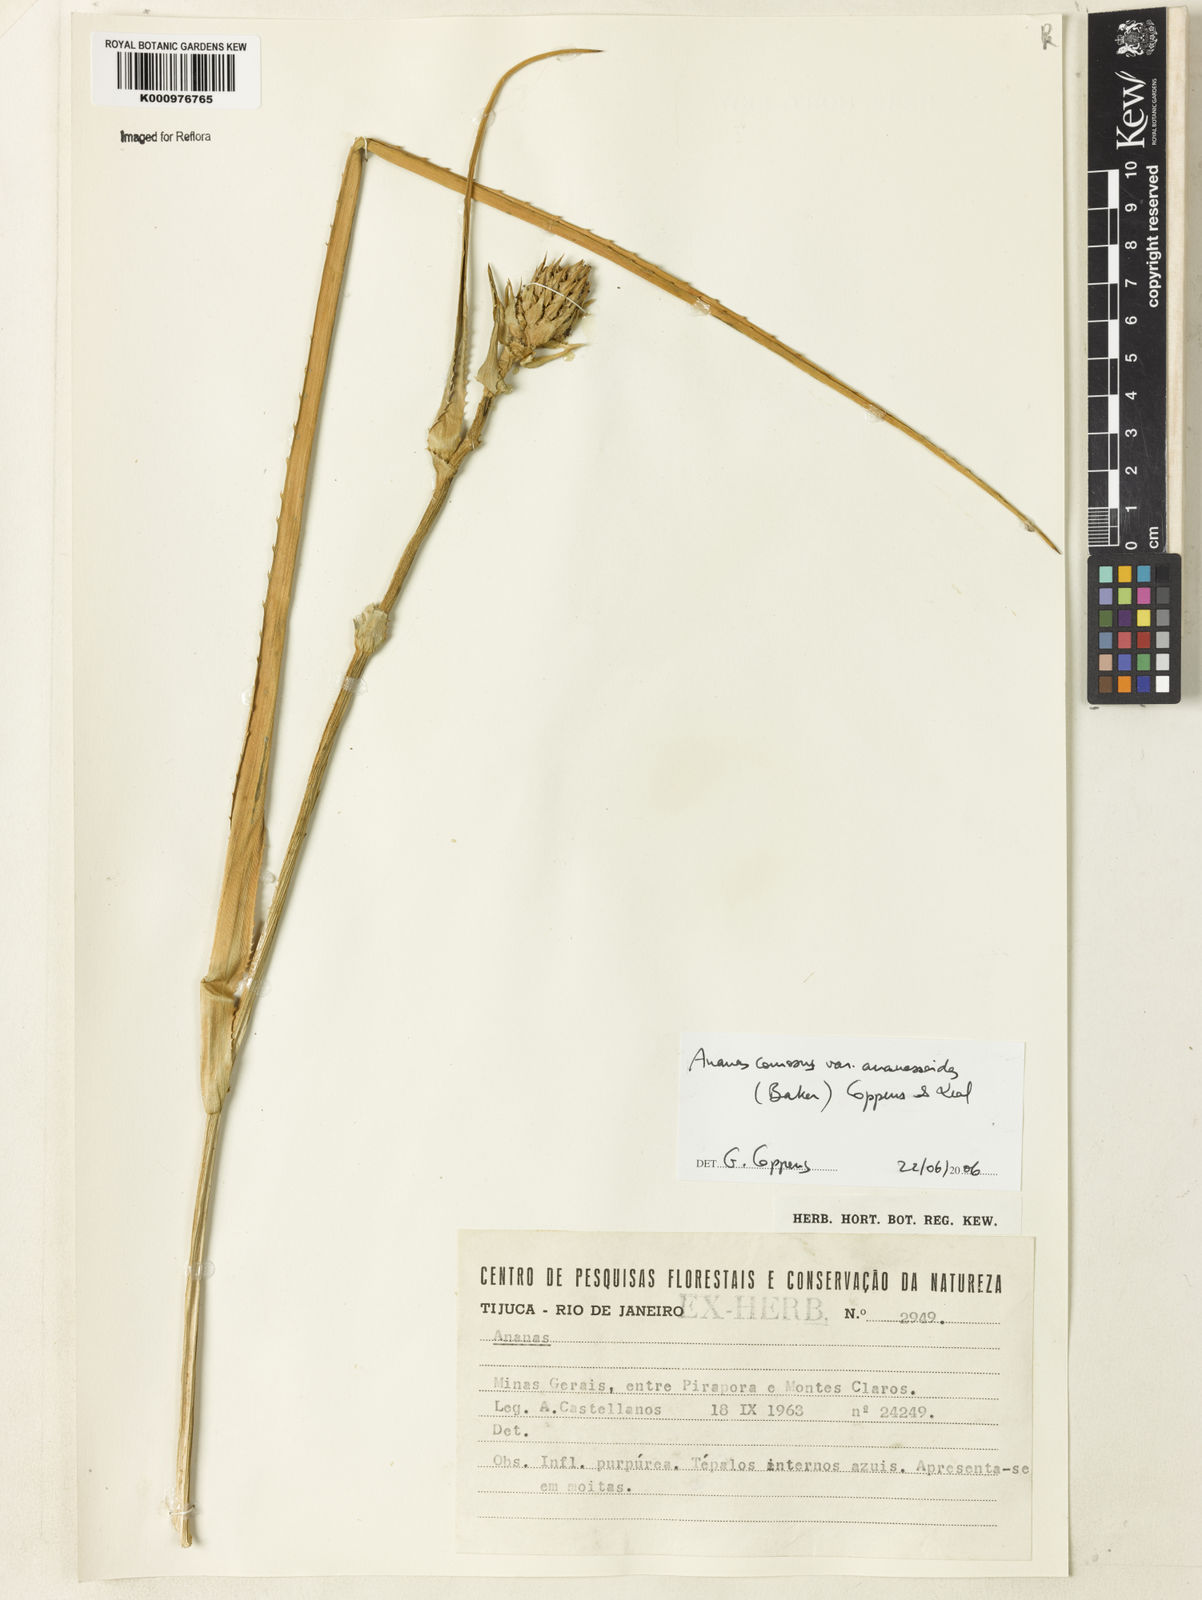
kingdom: Plantae
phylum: Tracheophyta
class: Liliopsida
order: Poales
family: Bromeliaceae
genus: Ananas
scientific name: Ananas comosus
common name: Pineapple
